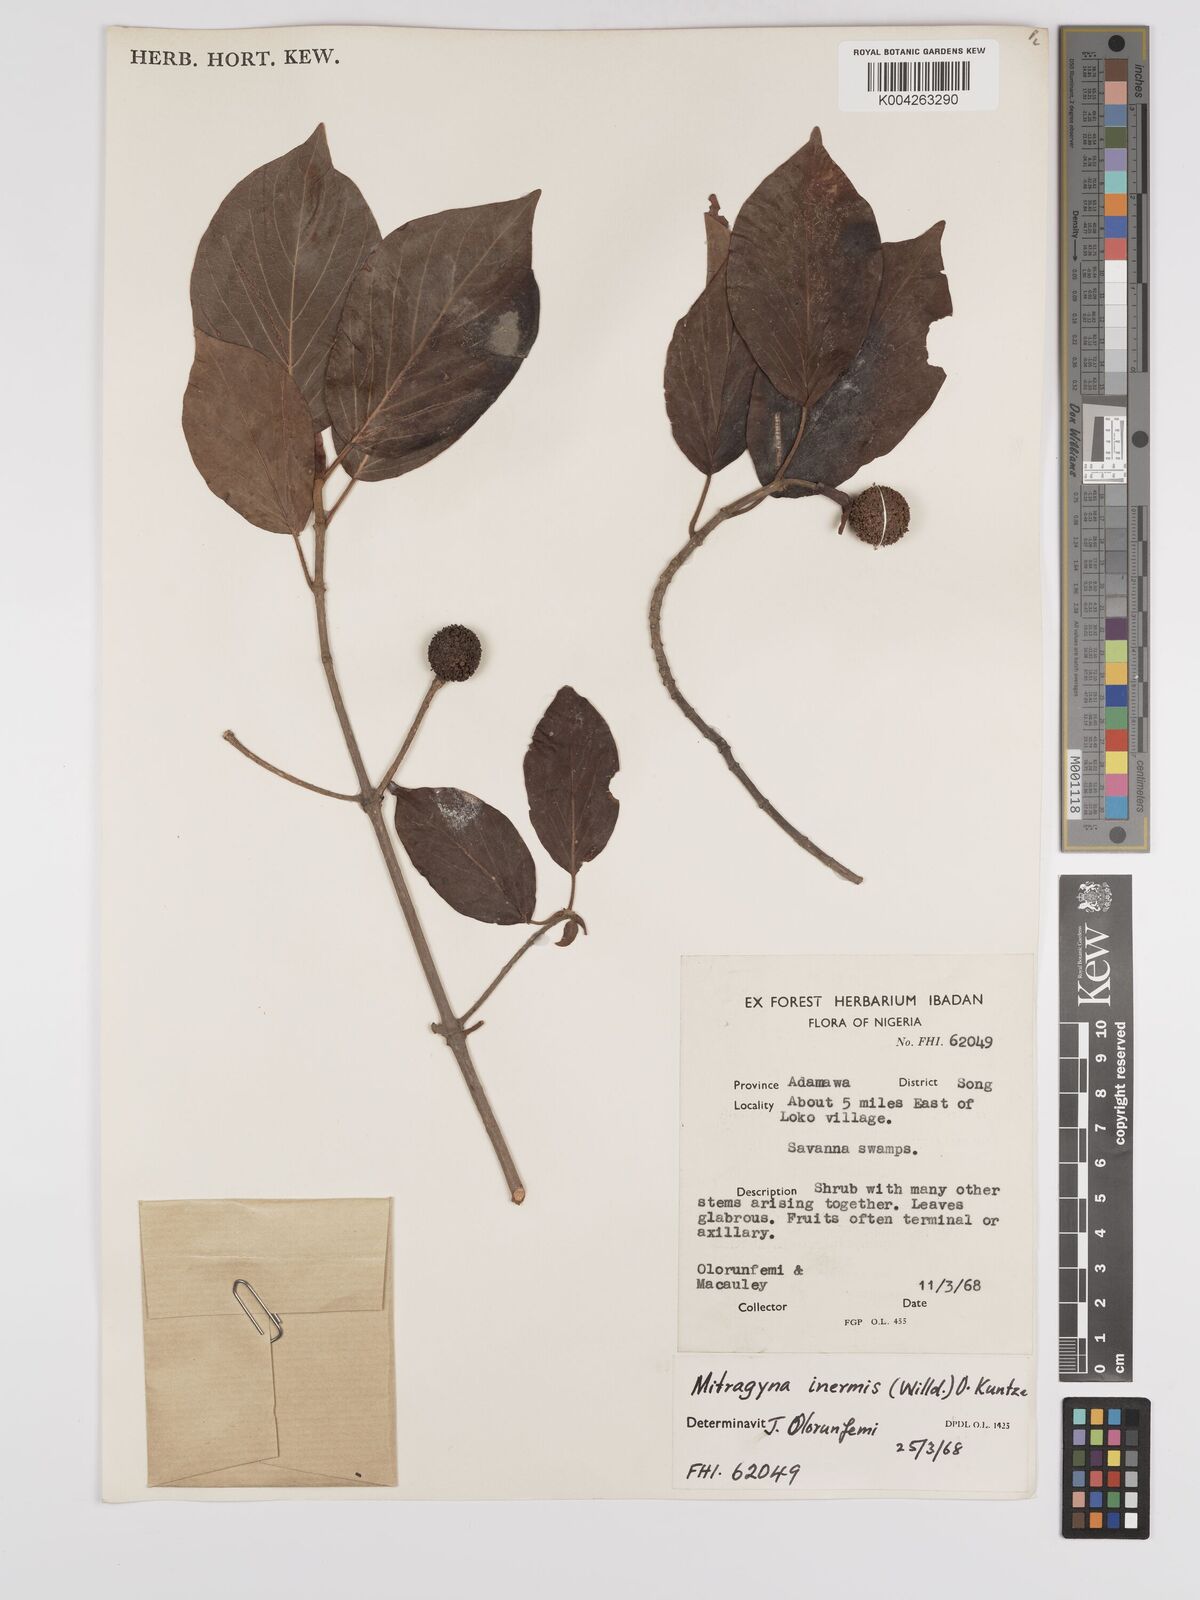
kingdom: Plantae
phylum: Tracheophyta
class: Magnoliopsida
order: Gentianales
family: Rubiaceae
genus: Mitragyna
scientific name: Mitragyna inermis
